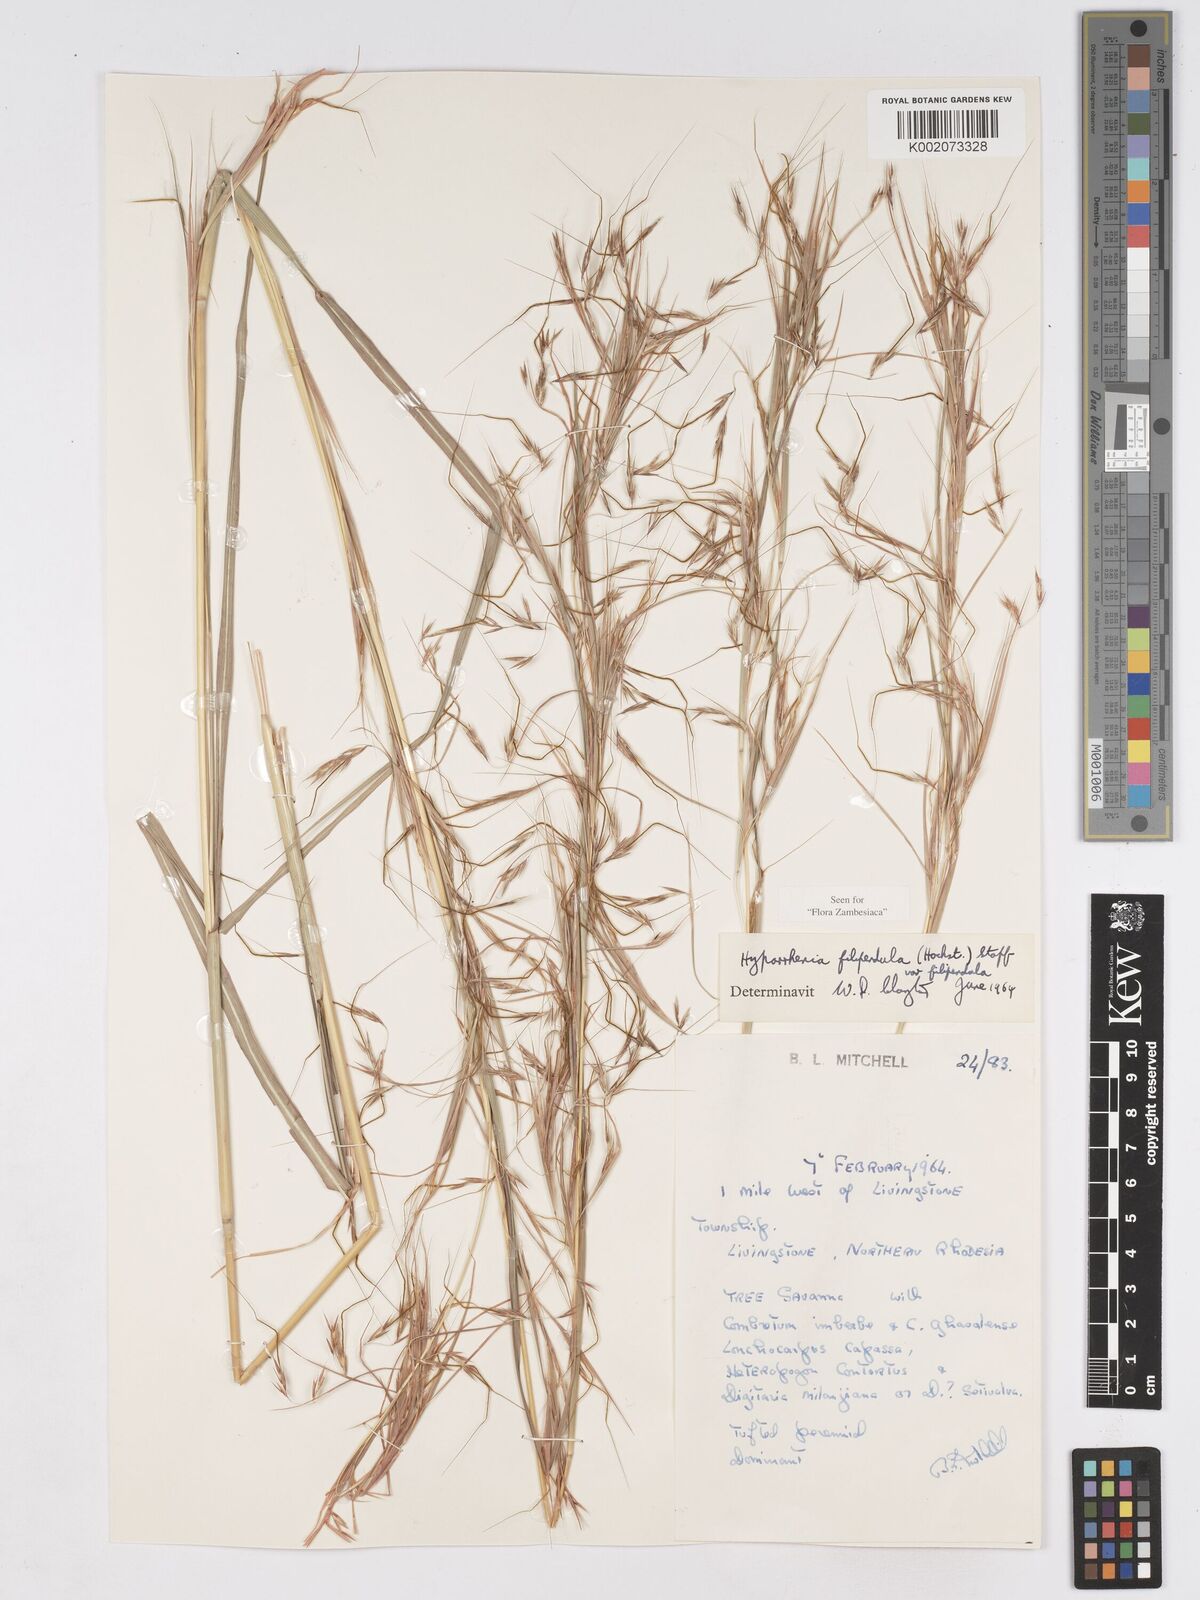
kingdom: Plantae
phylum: Tracheophyta
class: Liliopsida
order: Poales
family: Poaceae
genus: Hyparrhenia
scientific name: Hyparrhenia filipendula
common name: Tambookie grass
